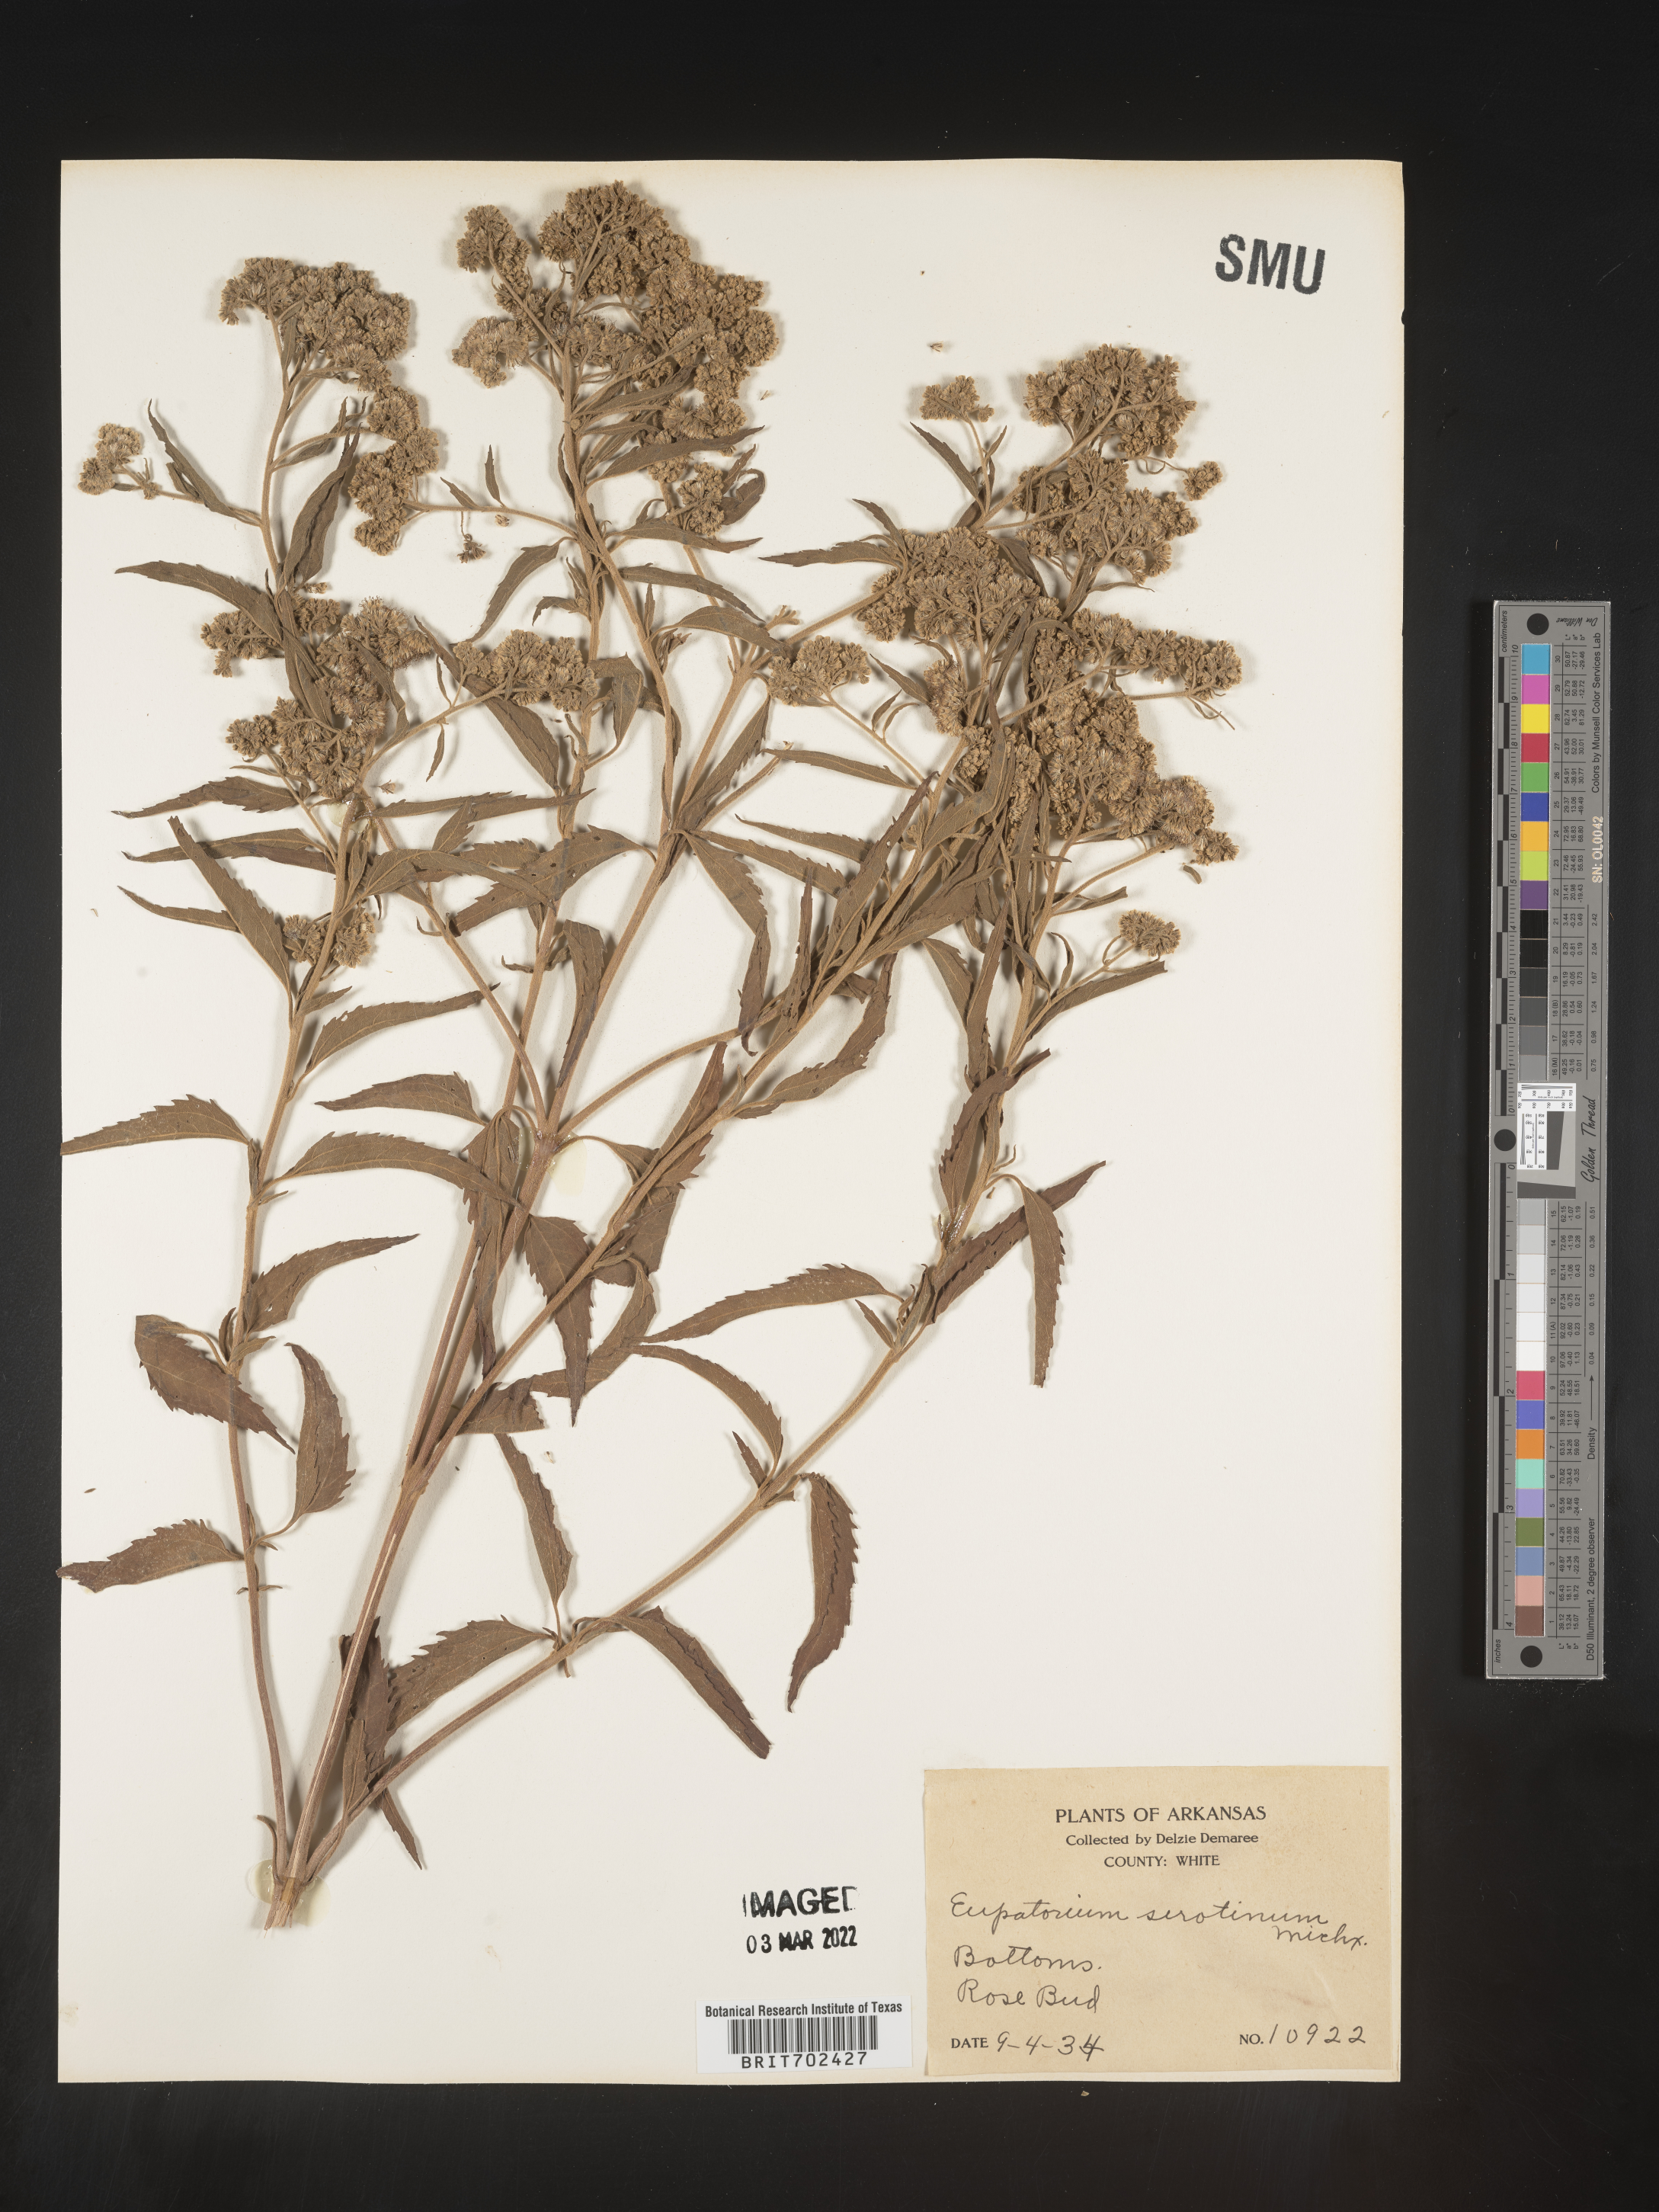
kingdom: Plantae
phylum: Tracheophyta
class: Magnoliopsida
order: Asterales
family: Asteraceae
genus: Eupatorium
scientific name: Eupatorium serotinum
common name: Late boneset
